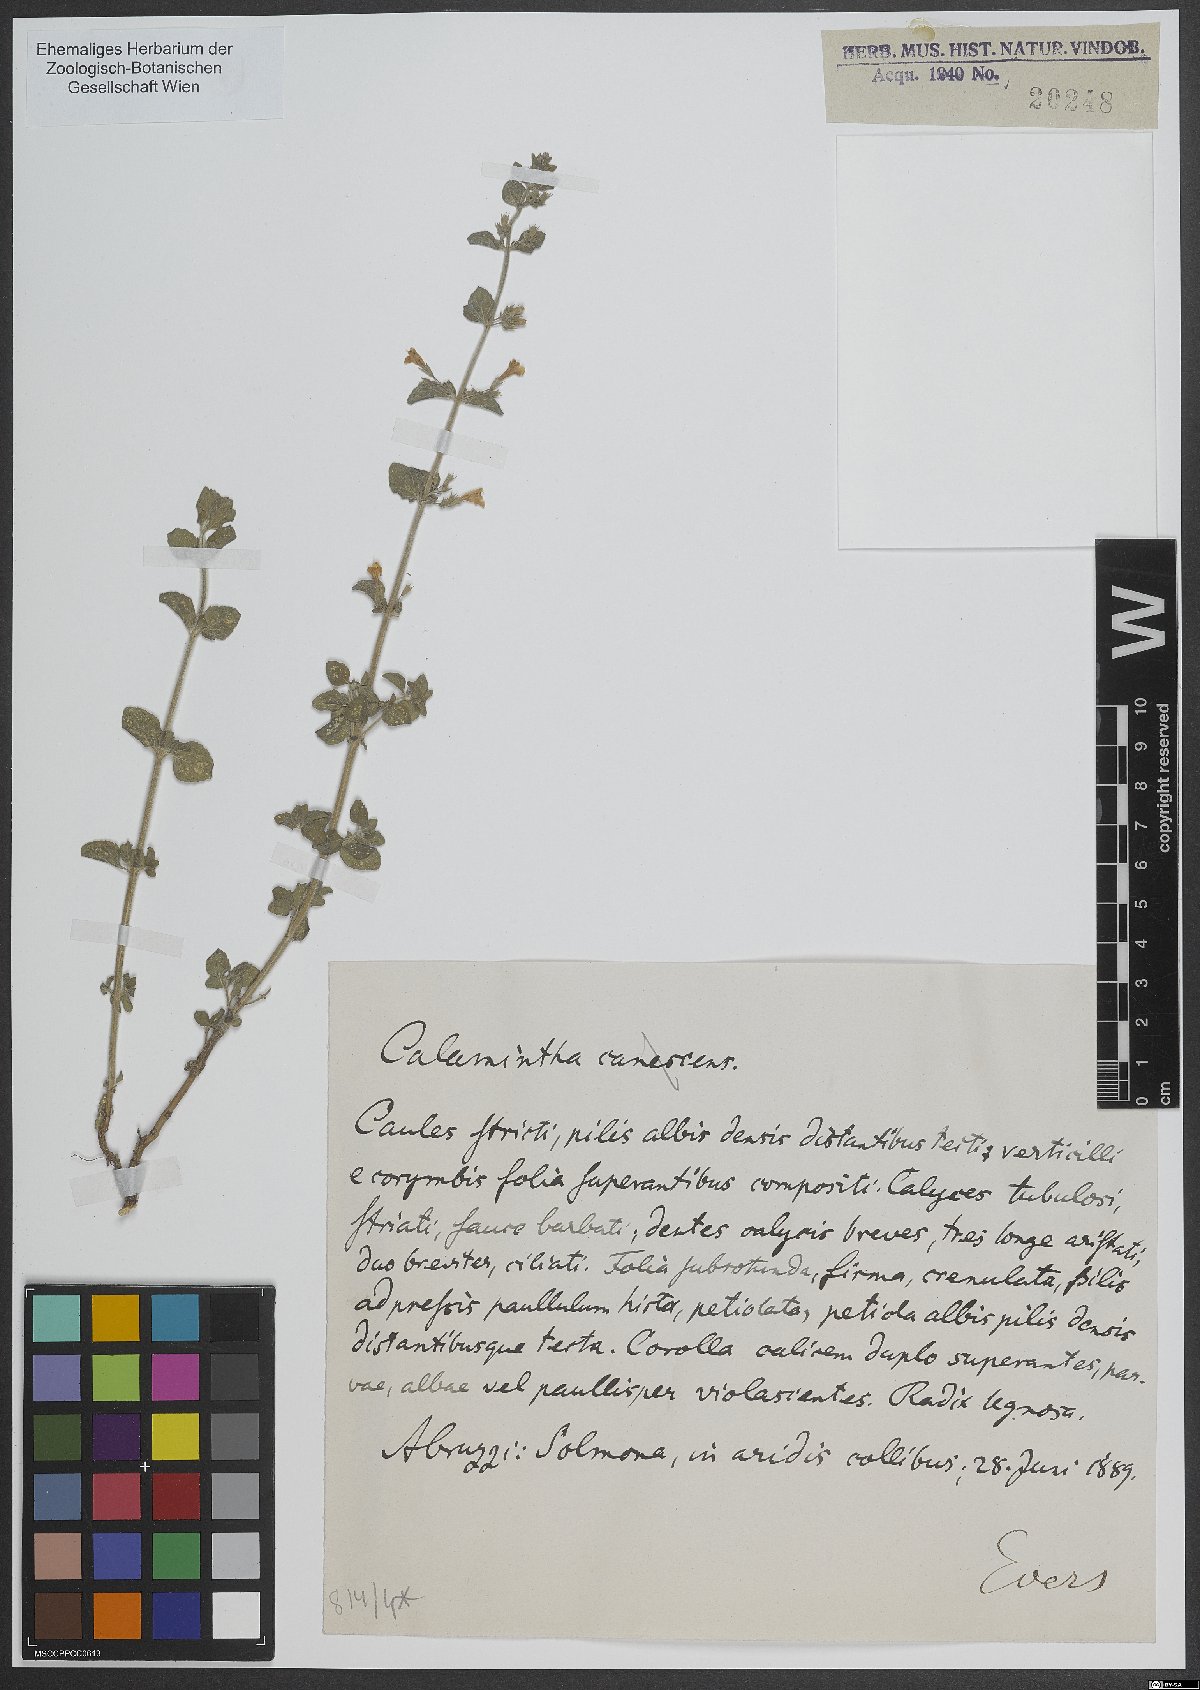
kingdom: Plantae
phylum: Tracheophyta
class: Magnoliopsida
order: Lamiales
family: Lamiaceae
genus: Calamintha
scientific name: Calamintha
